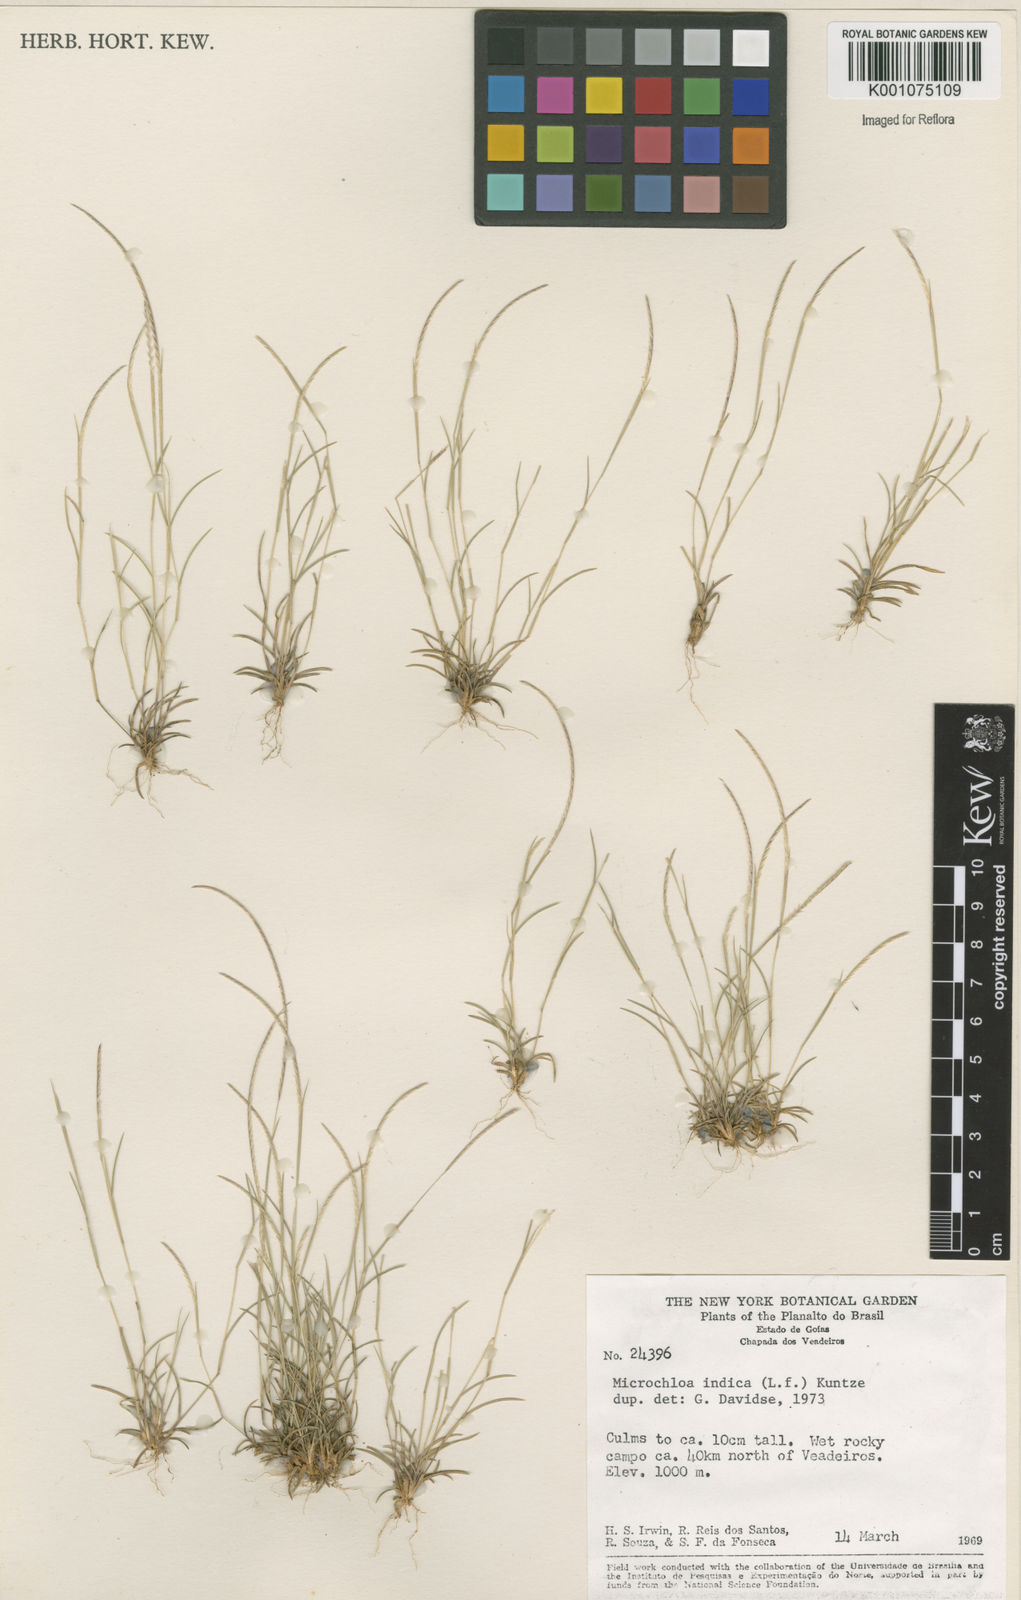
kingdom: Plantae
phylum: Tracheophyta
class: Liliopsida
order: Poales
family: Poaceae
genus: Microchloa
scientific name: Microchloa indica
